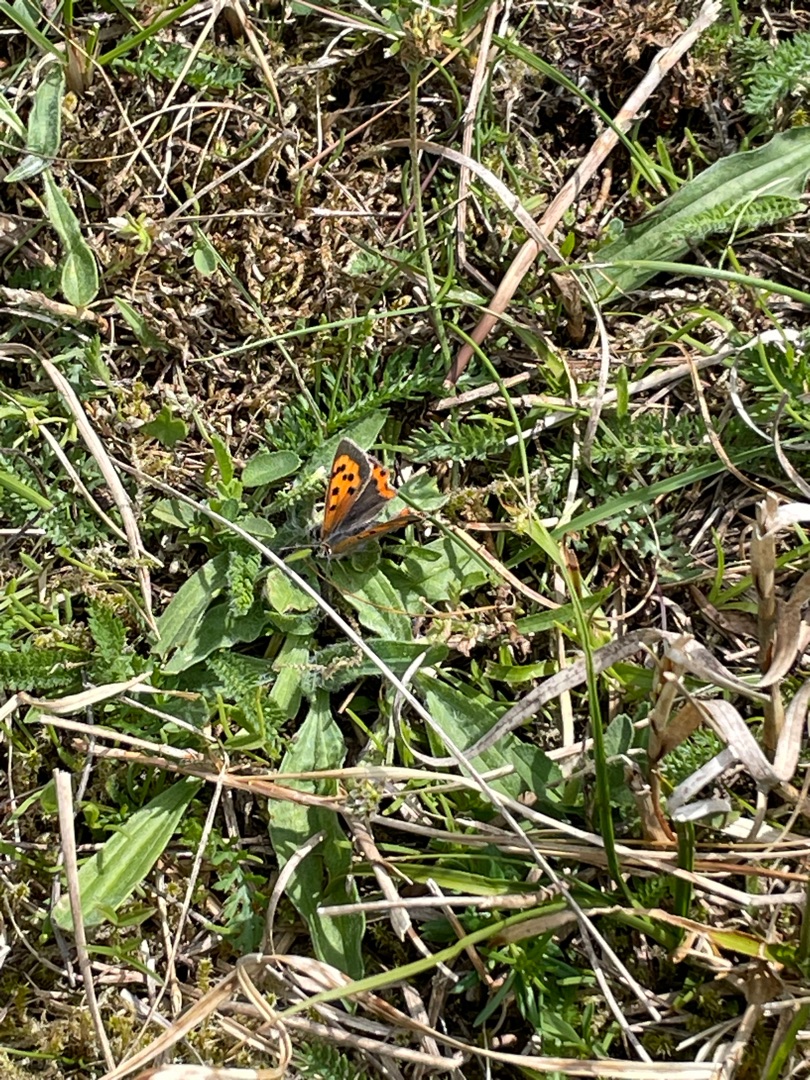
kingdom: Animalia
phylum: Arthropoda
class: Insecta
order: Lepidoptera
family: Lycaenidae
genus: Lycaena
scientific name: Lycaena phlaeas
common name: Lille ildfugl
